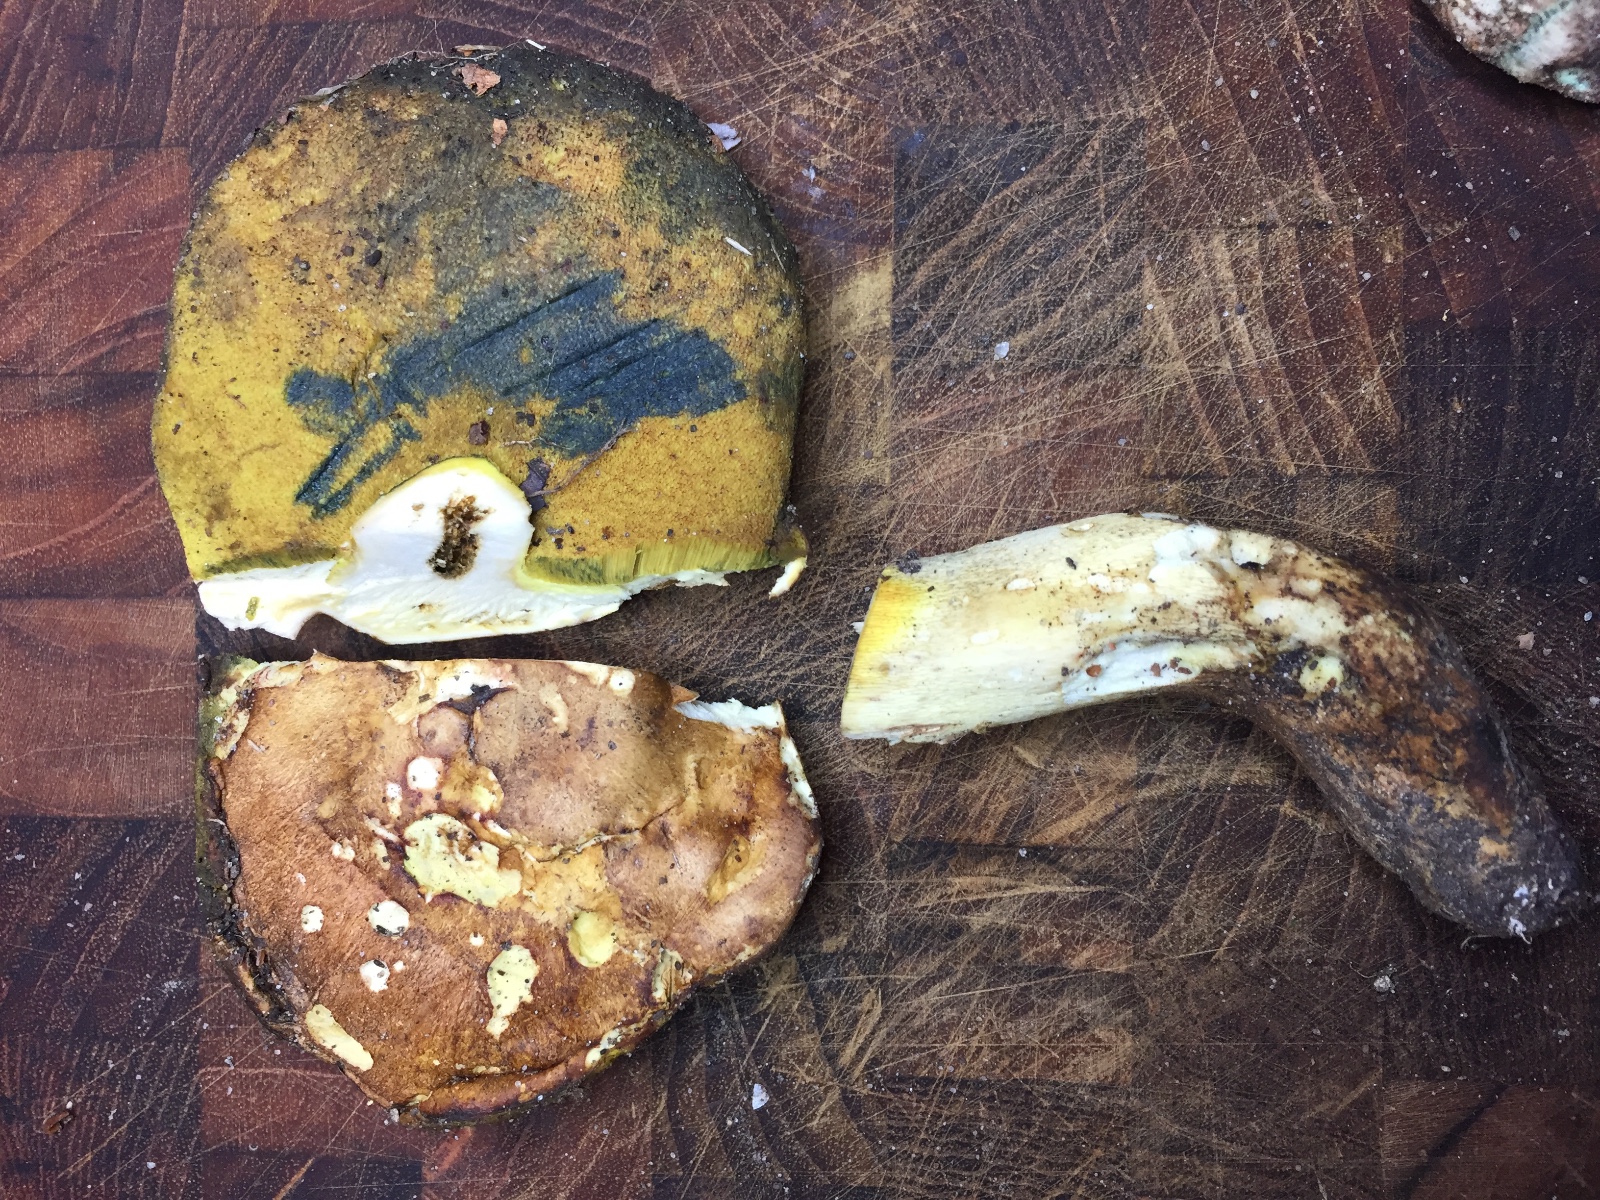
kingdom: Fungi
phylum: Basidiomycota
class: Agaricomycetes
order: Boletales
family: Boletaceae
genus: Butyriboletus
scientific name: Butyriboletus appendiculatus
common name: tenstokket rørhat
